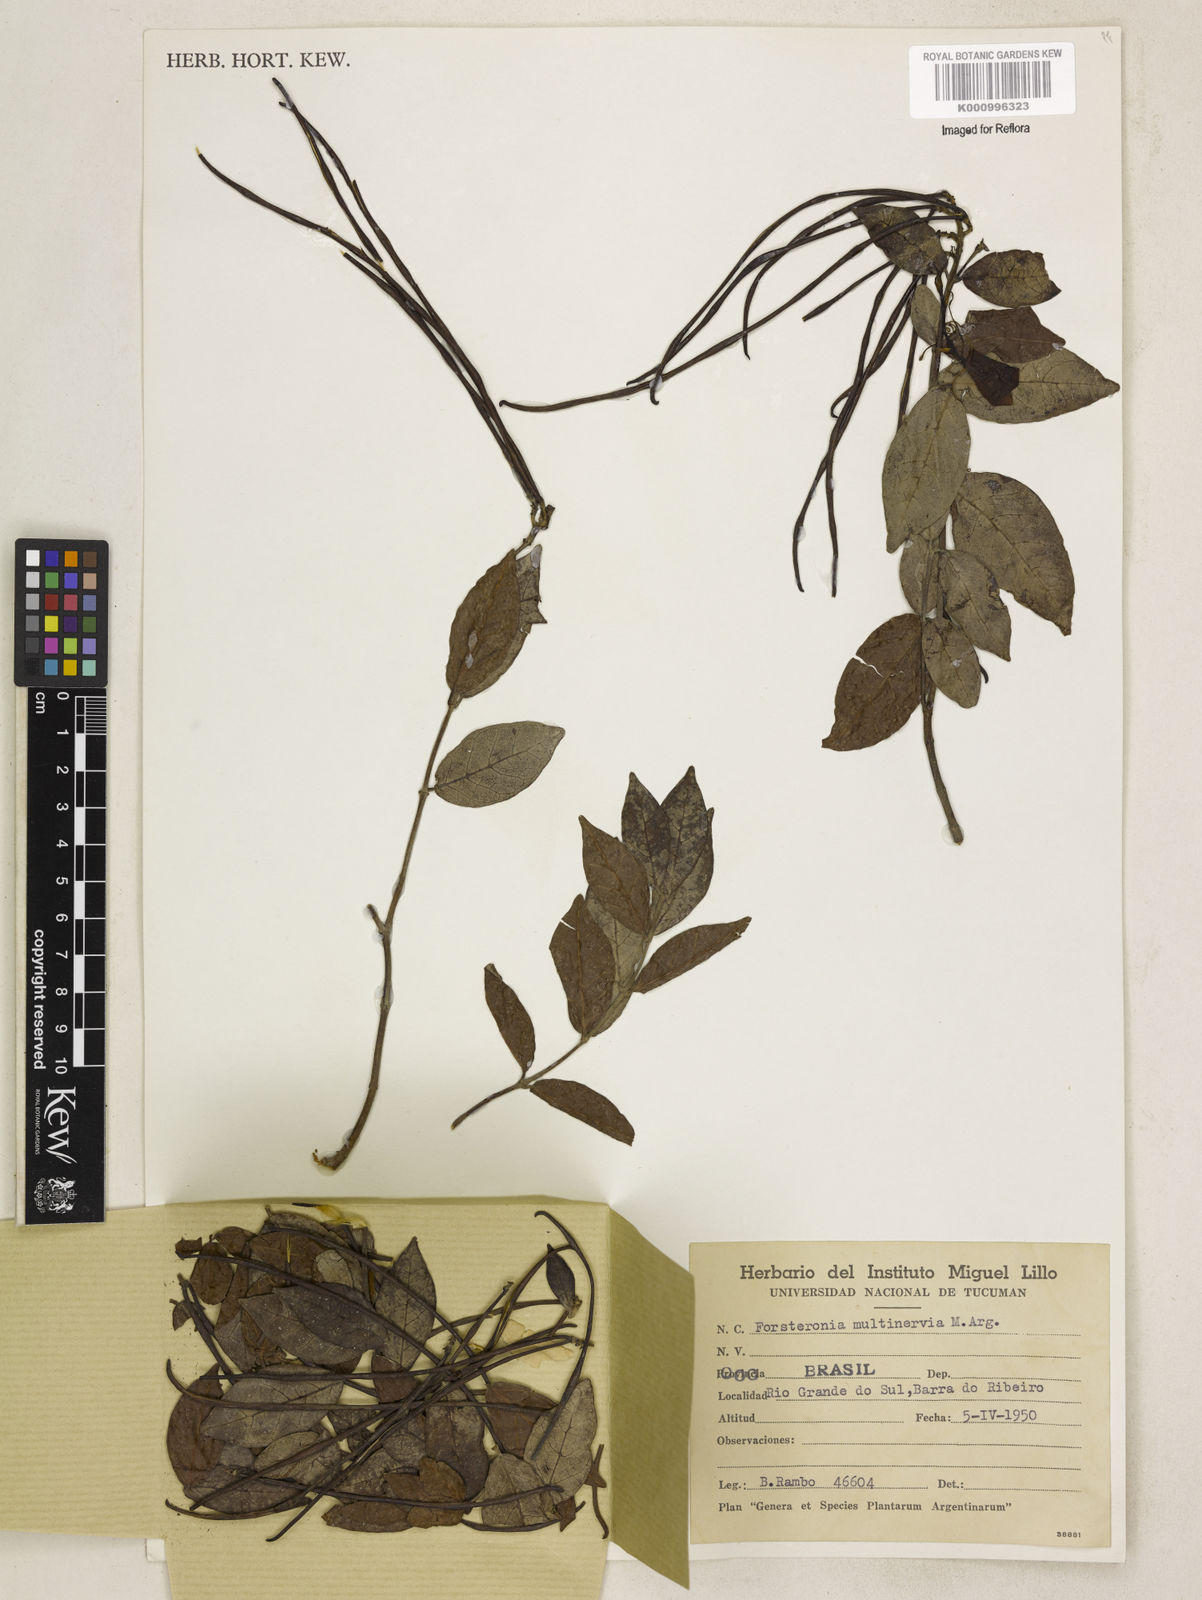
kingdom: Plantae
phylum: Tracheophyta
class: Magnoliopsida
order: Gentianales
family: Apocynaceae
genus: Forsteronia
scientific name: Forsteronia
